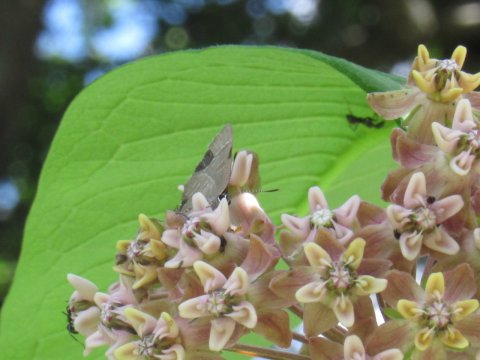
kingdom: Animalia
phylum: Arthropoda
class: Insecta
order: Lepidoptera
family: Lycaenidae
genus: Satyrium
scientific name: Satyrium
